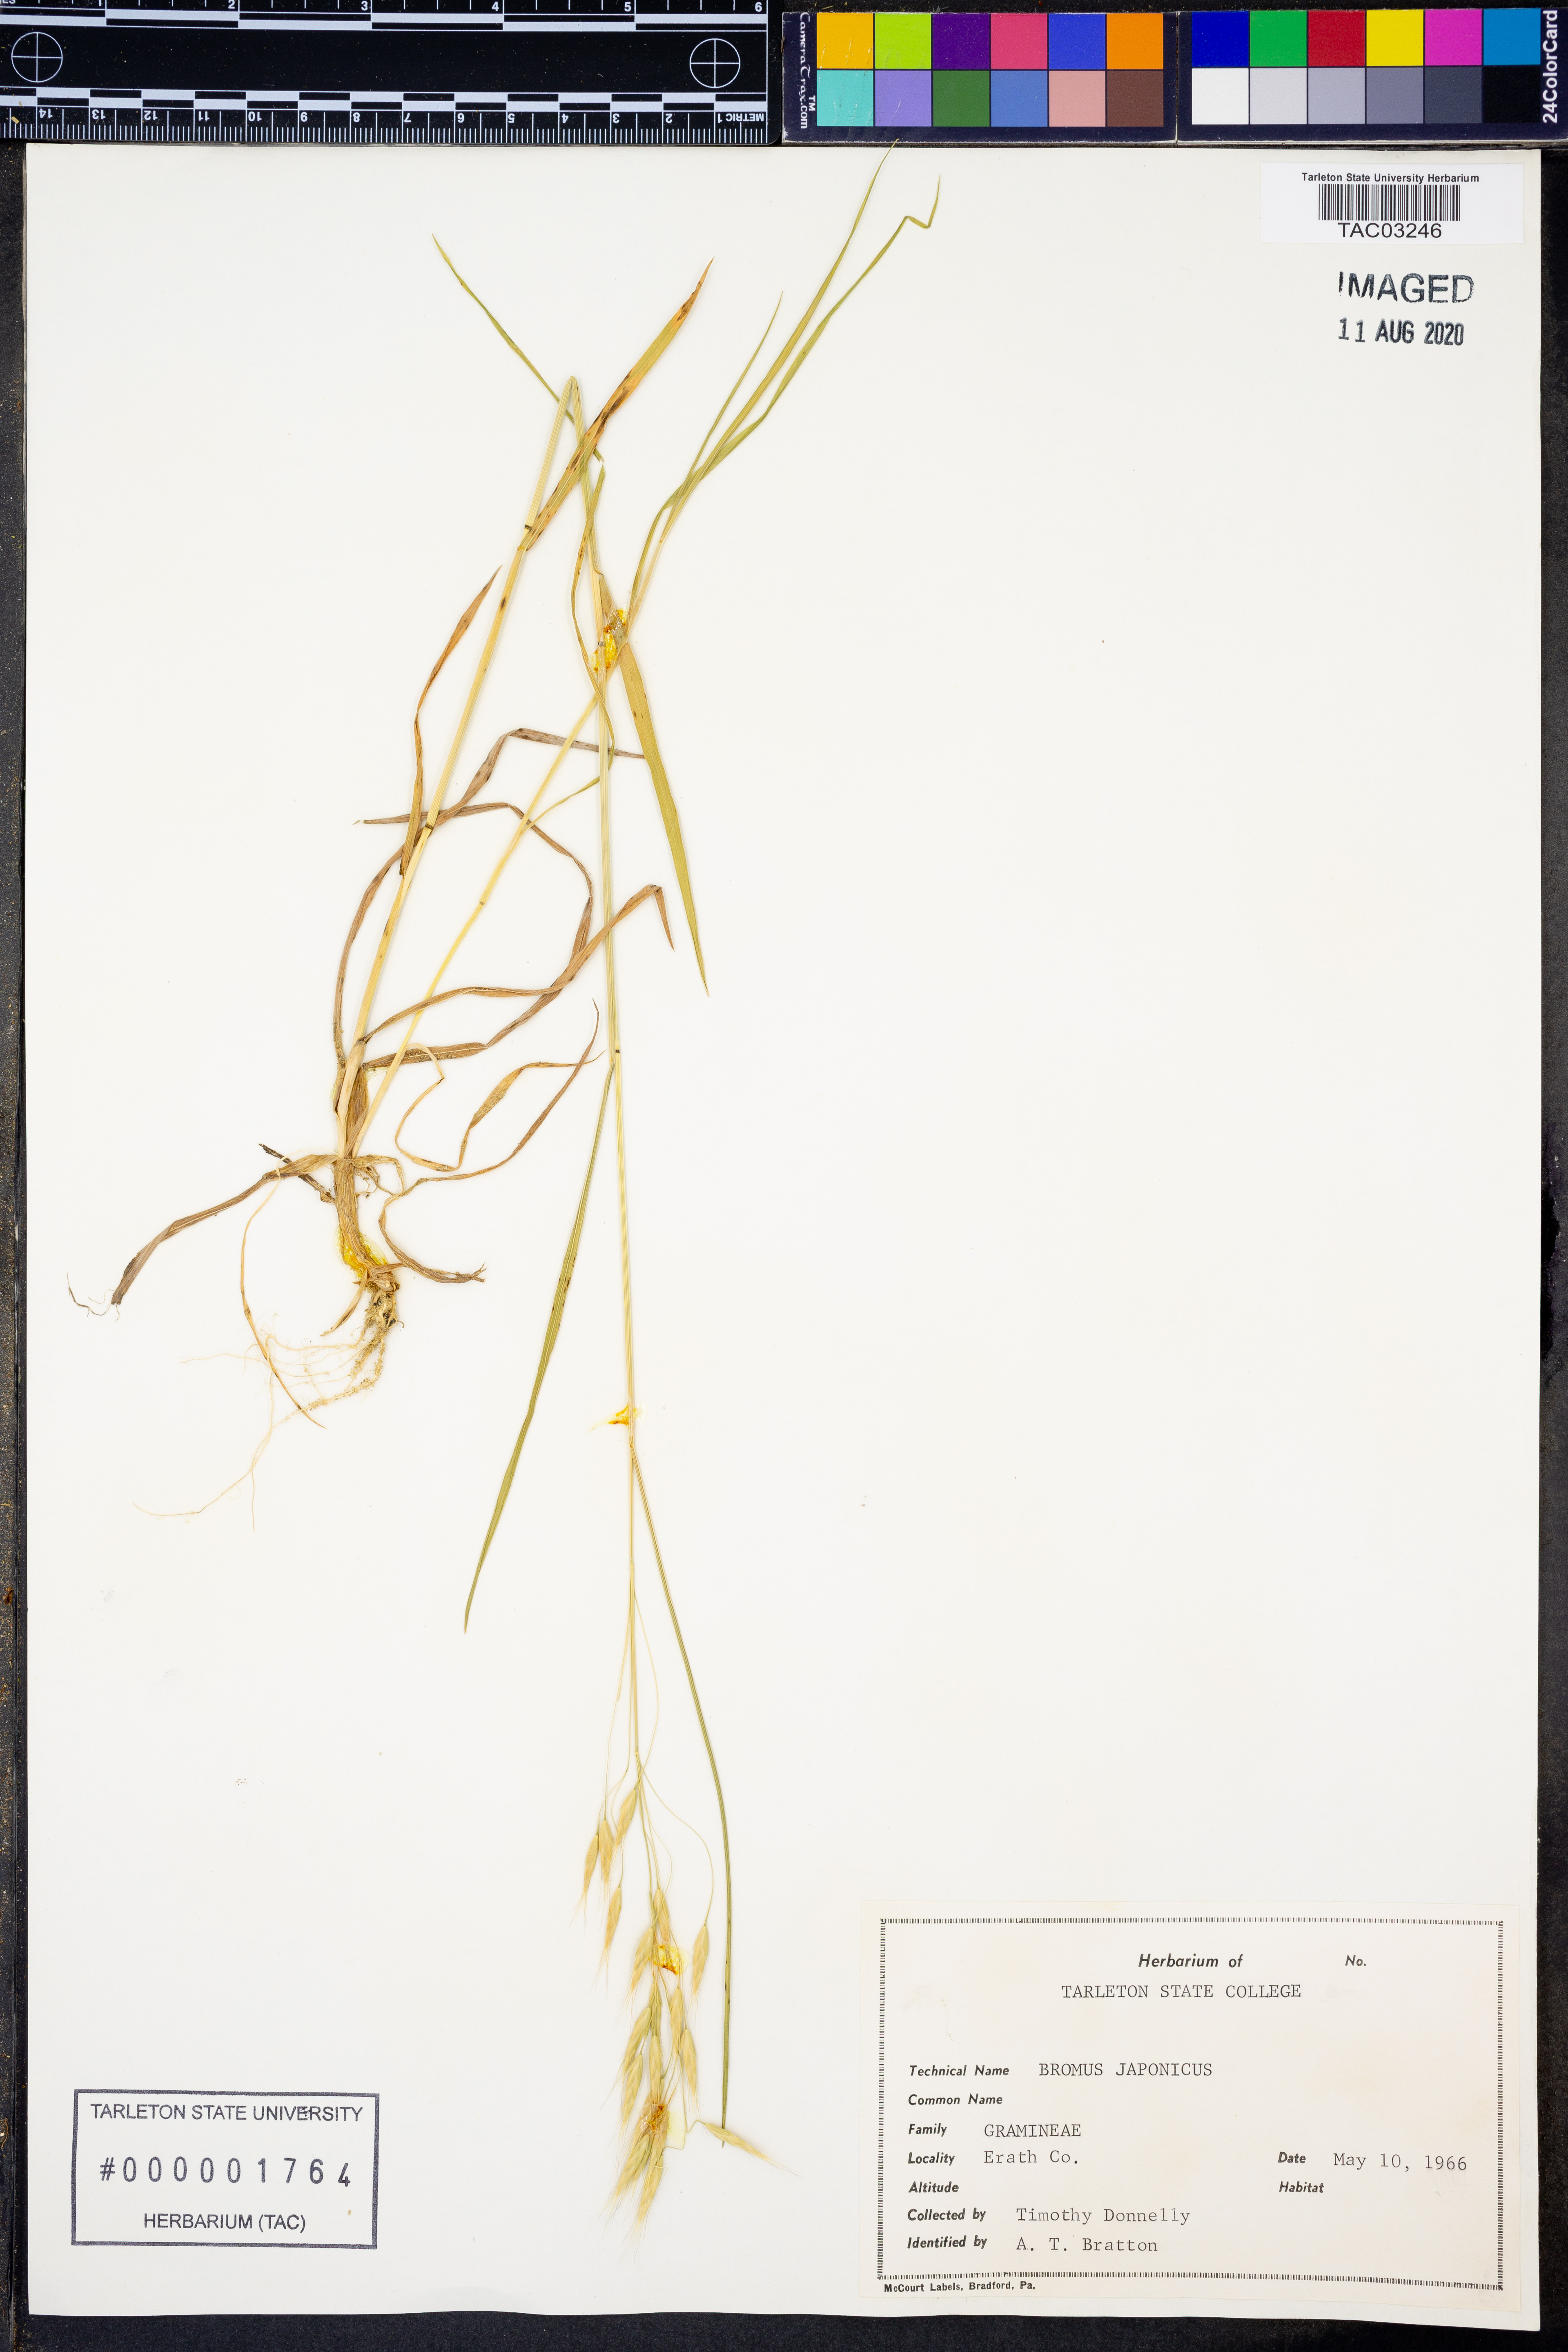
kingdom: Plantae
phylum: Tracheophyta
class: Liliopsida
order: Poales
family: Poaceae
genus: Bromus
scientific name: Bromus japonicus
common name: Japanese brome
